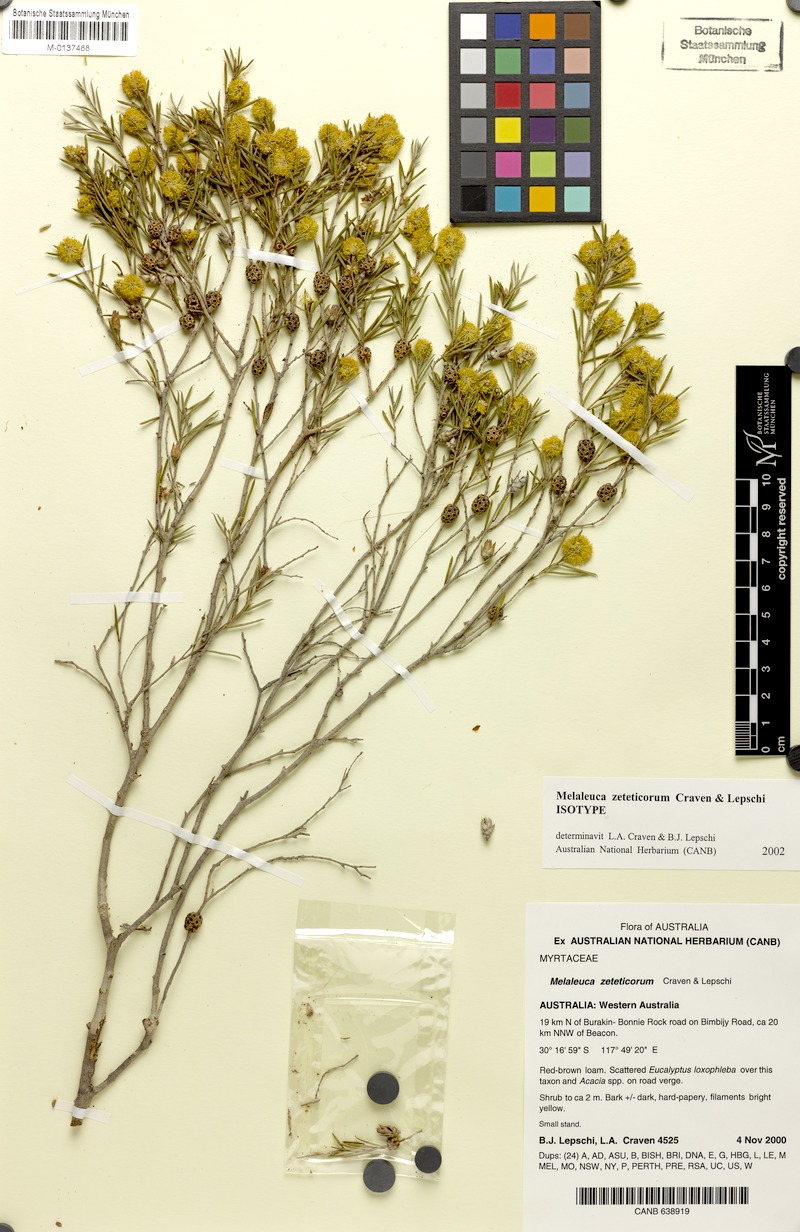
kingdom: Plantae
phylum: Tracheophyta
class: Magnoliopsida
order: Myrtales
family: Myrtaceae
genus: Melaleuca
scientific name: Melaleuca zeteticorum
